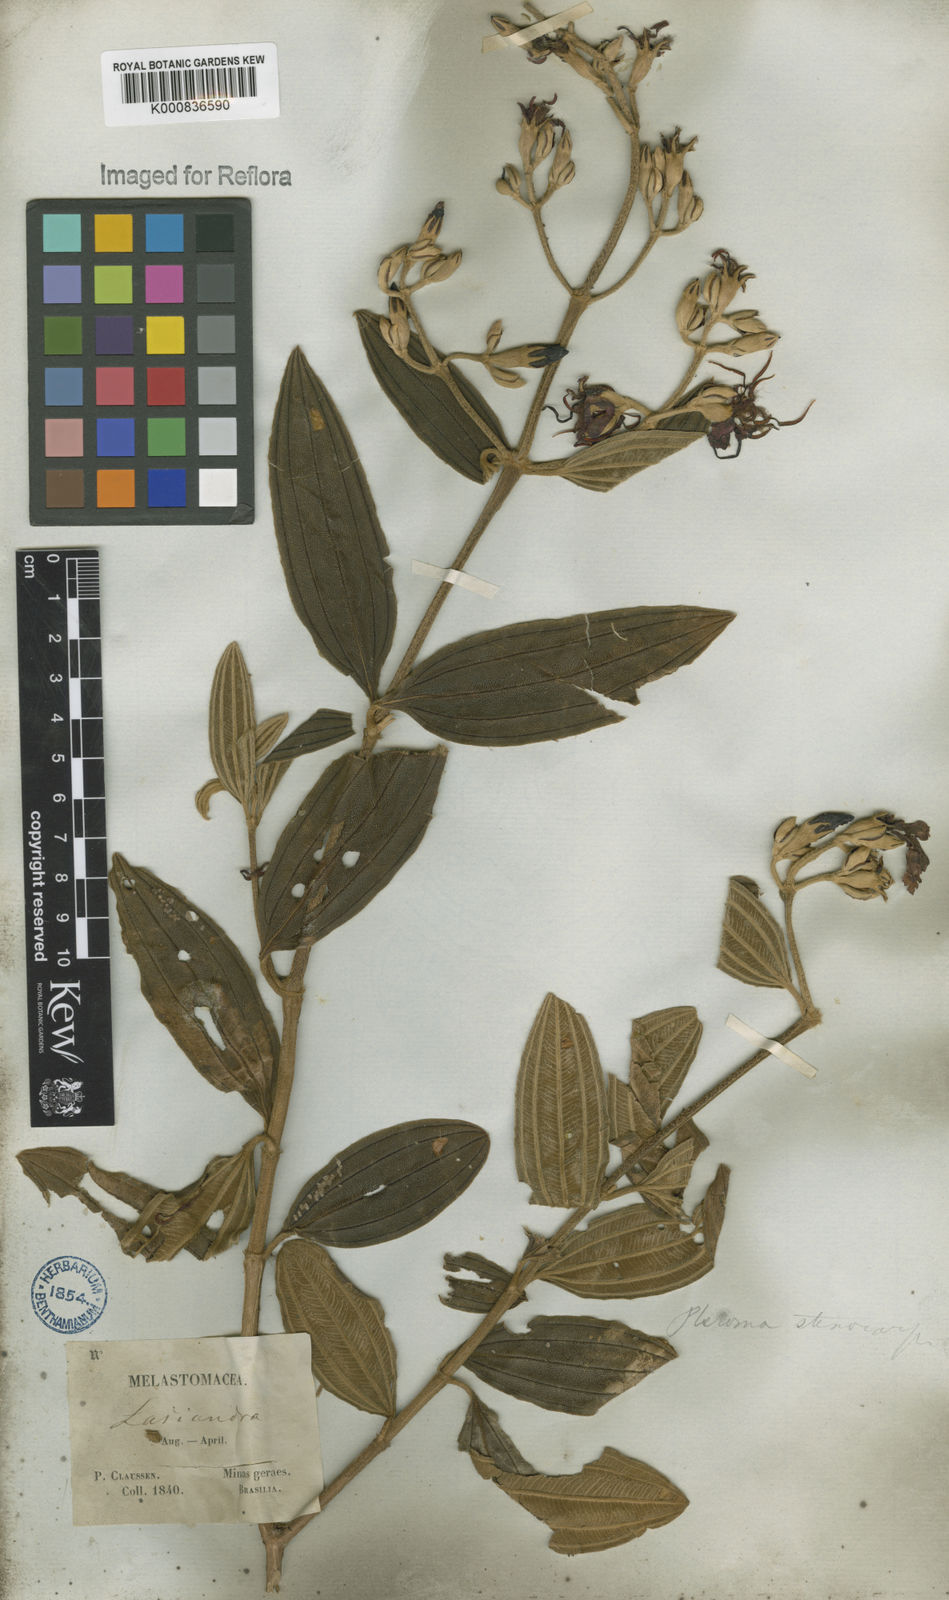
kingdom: Plantae
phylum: Tracheophyta
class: Magnoliopsida
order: Myrtales
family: Melastomataceae
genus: Pleroma
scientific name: Pleroma stenocarpum
